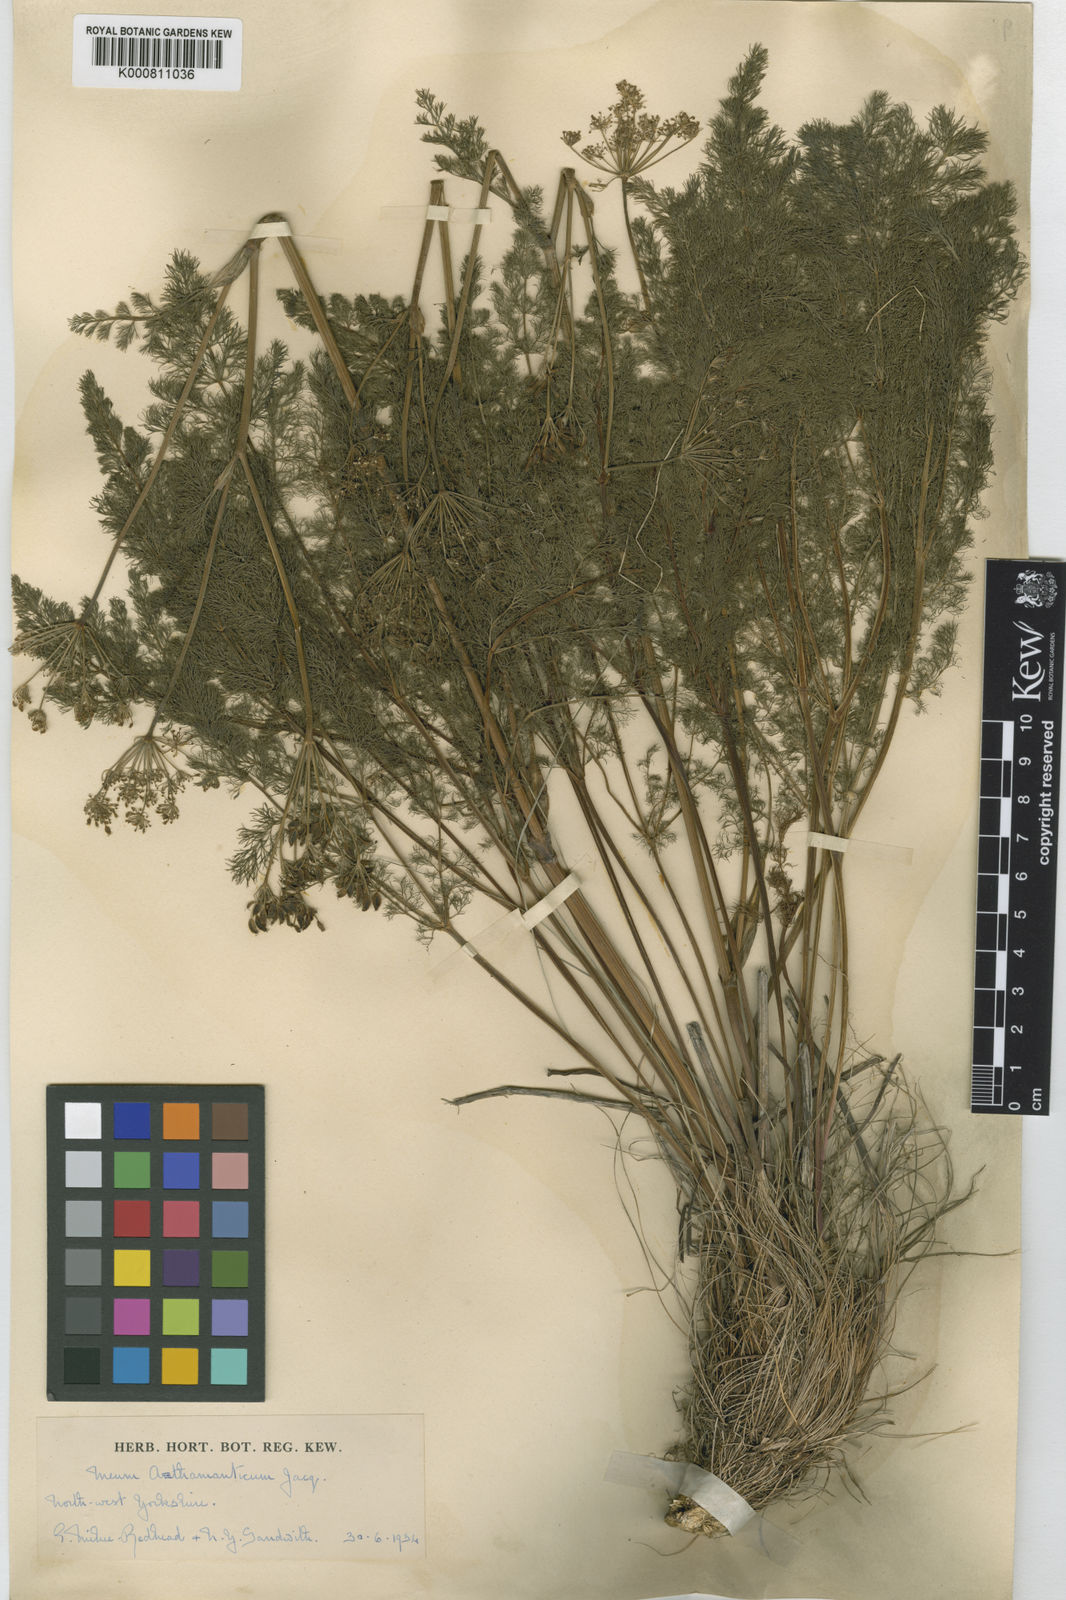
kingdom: Plantae
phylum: Tracheophyta
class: Magnoliopsida
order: Apiales
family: Apiaceae
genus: Meum
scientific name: Meum athamanticum
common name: Spignel
